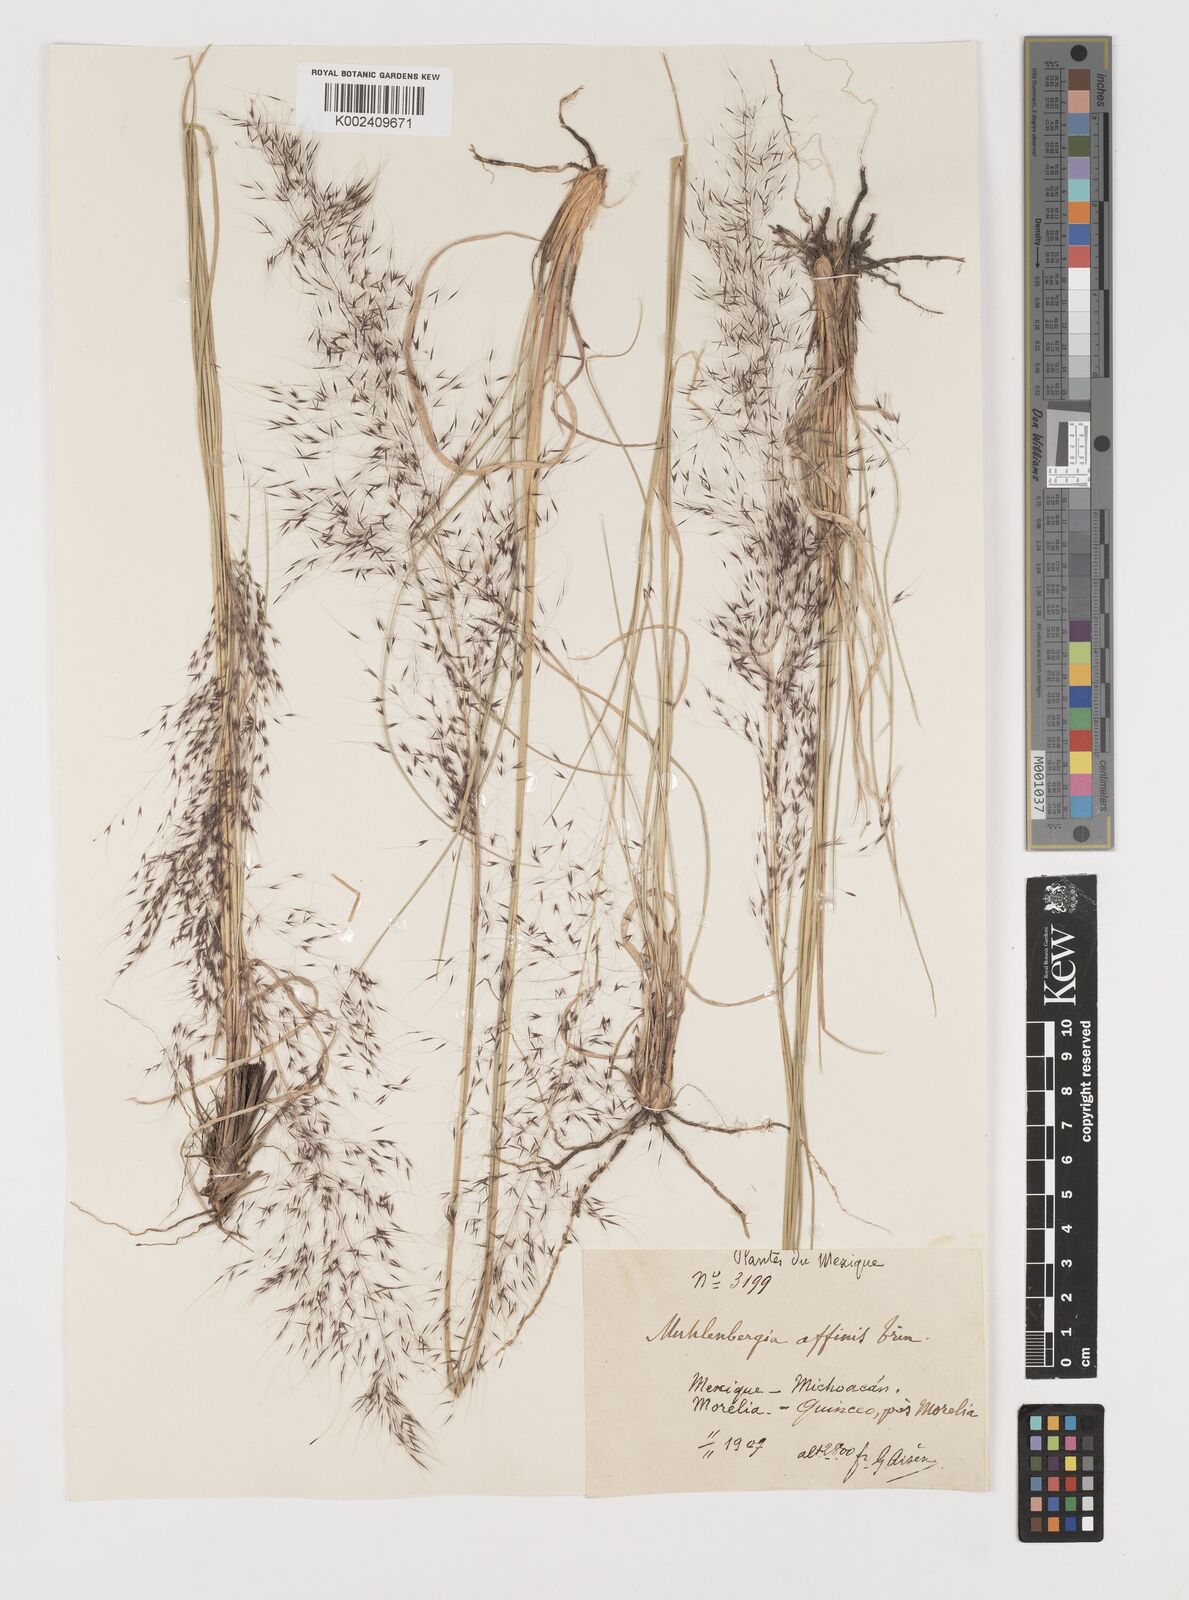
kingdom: Plantae
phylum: Tracheophyta
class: Liliopsida
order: Poales
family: Poaceae
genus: Muhlenbergia
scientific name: Muhlenbergia rigida
